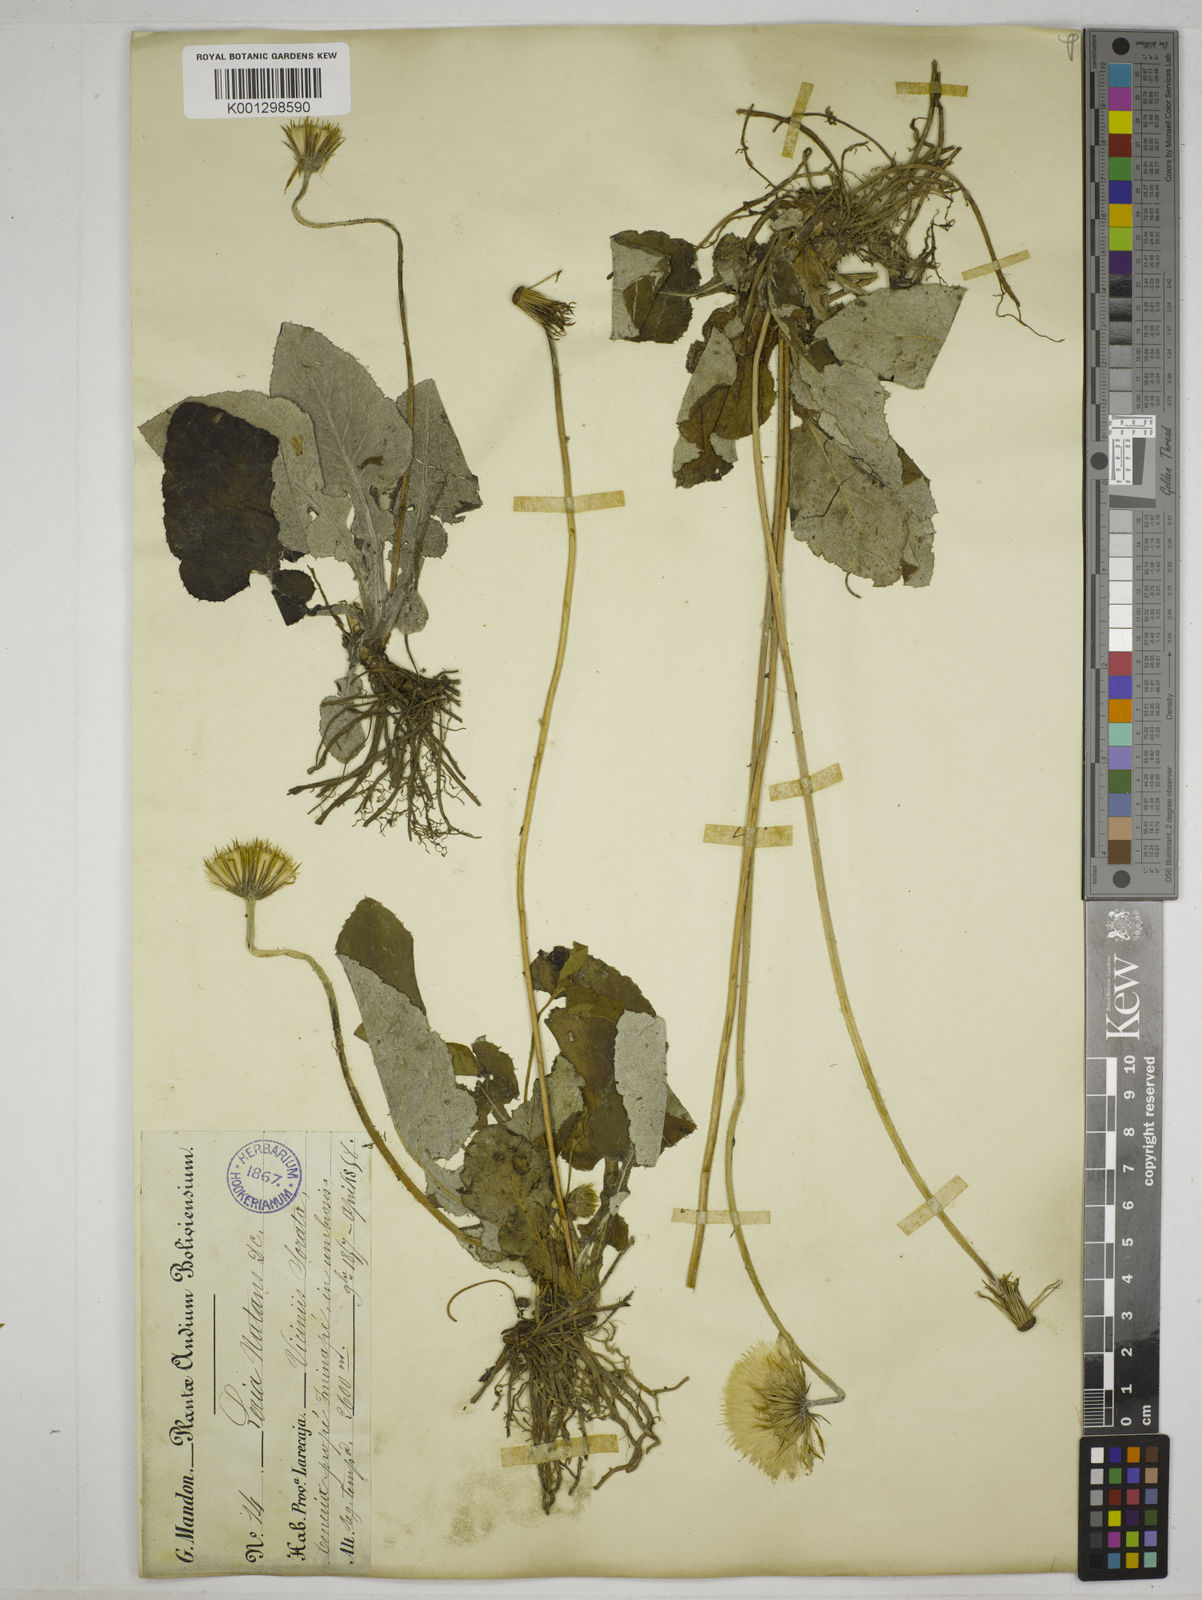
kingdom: Plantae
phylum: Tracheophyta
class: Magnoliopsida
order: Asterales
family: Asteraceae
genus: Chaptalia
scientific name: Chaptalia nutans
